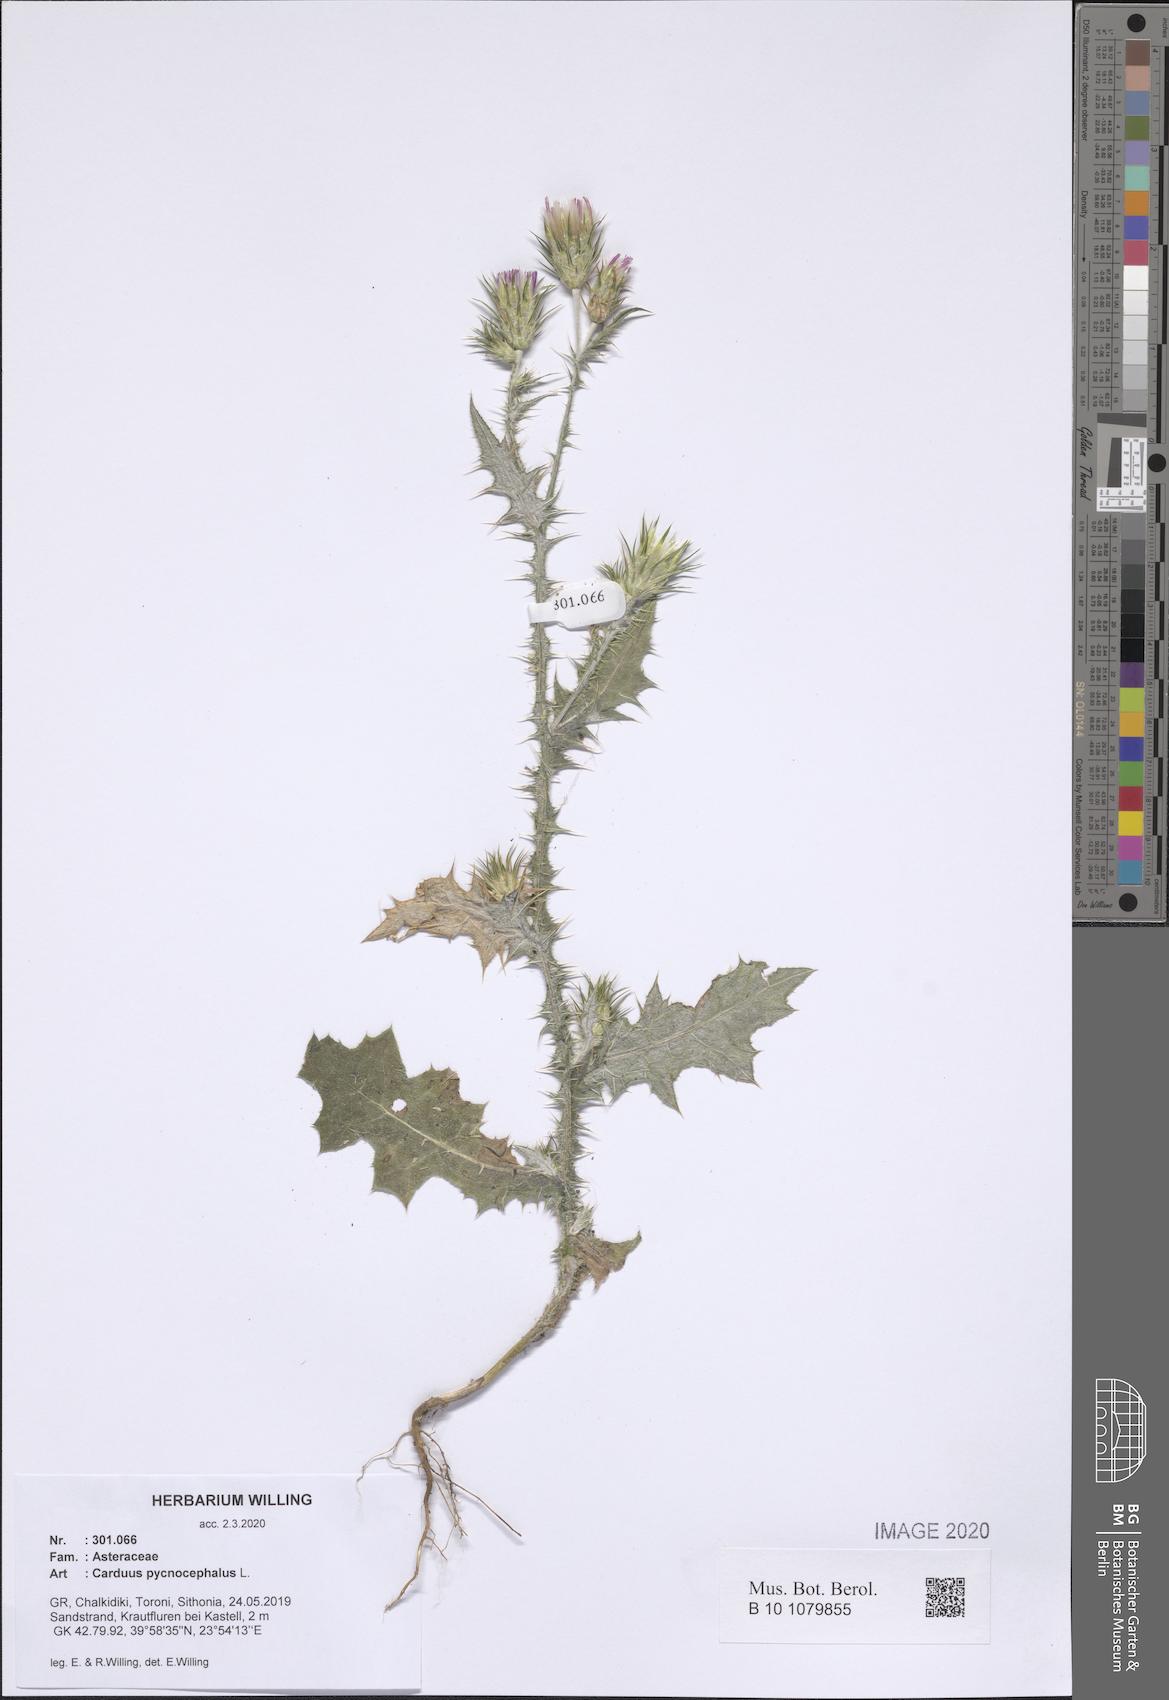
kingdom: Plantae
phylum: Tracheophyta
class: Magnoliopsida
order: Asterales
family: Asteraceae
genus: Carduus
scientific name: Carduus pycnocephalus
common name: Plymouth thistle
